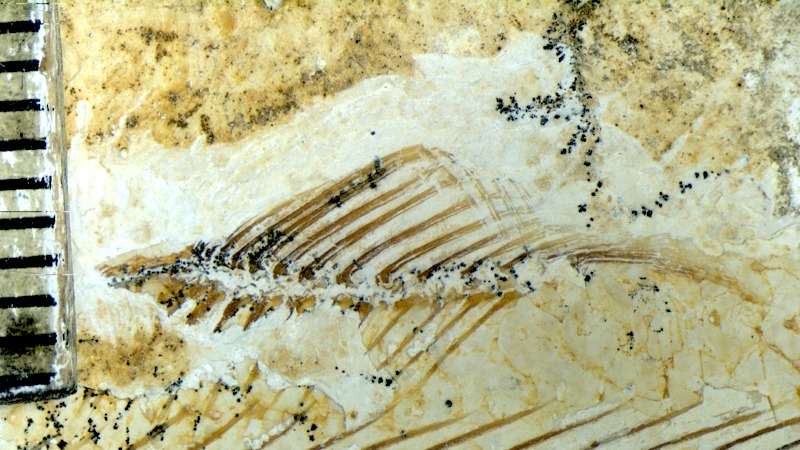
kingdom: Animalia
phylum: Chordata
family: Allothrissopidae
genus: Allothrissops
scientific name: Allothrissops mesogaster
